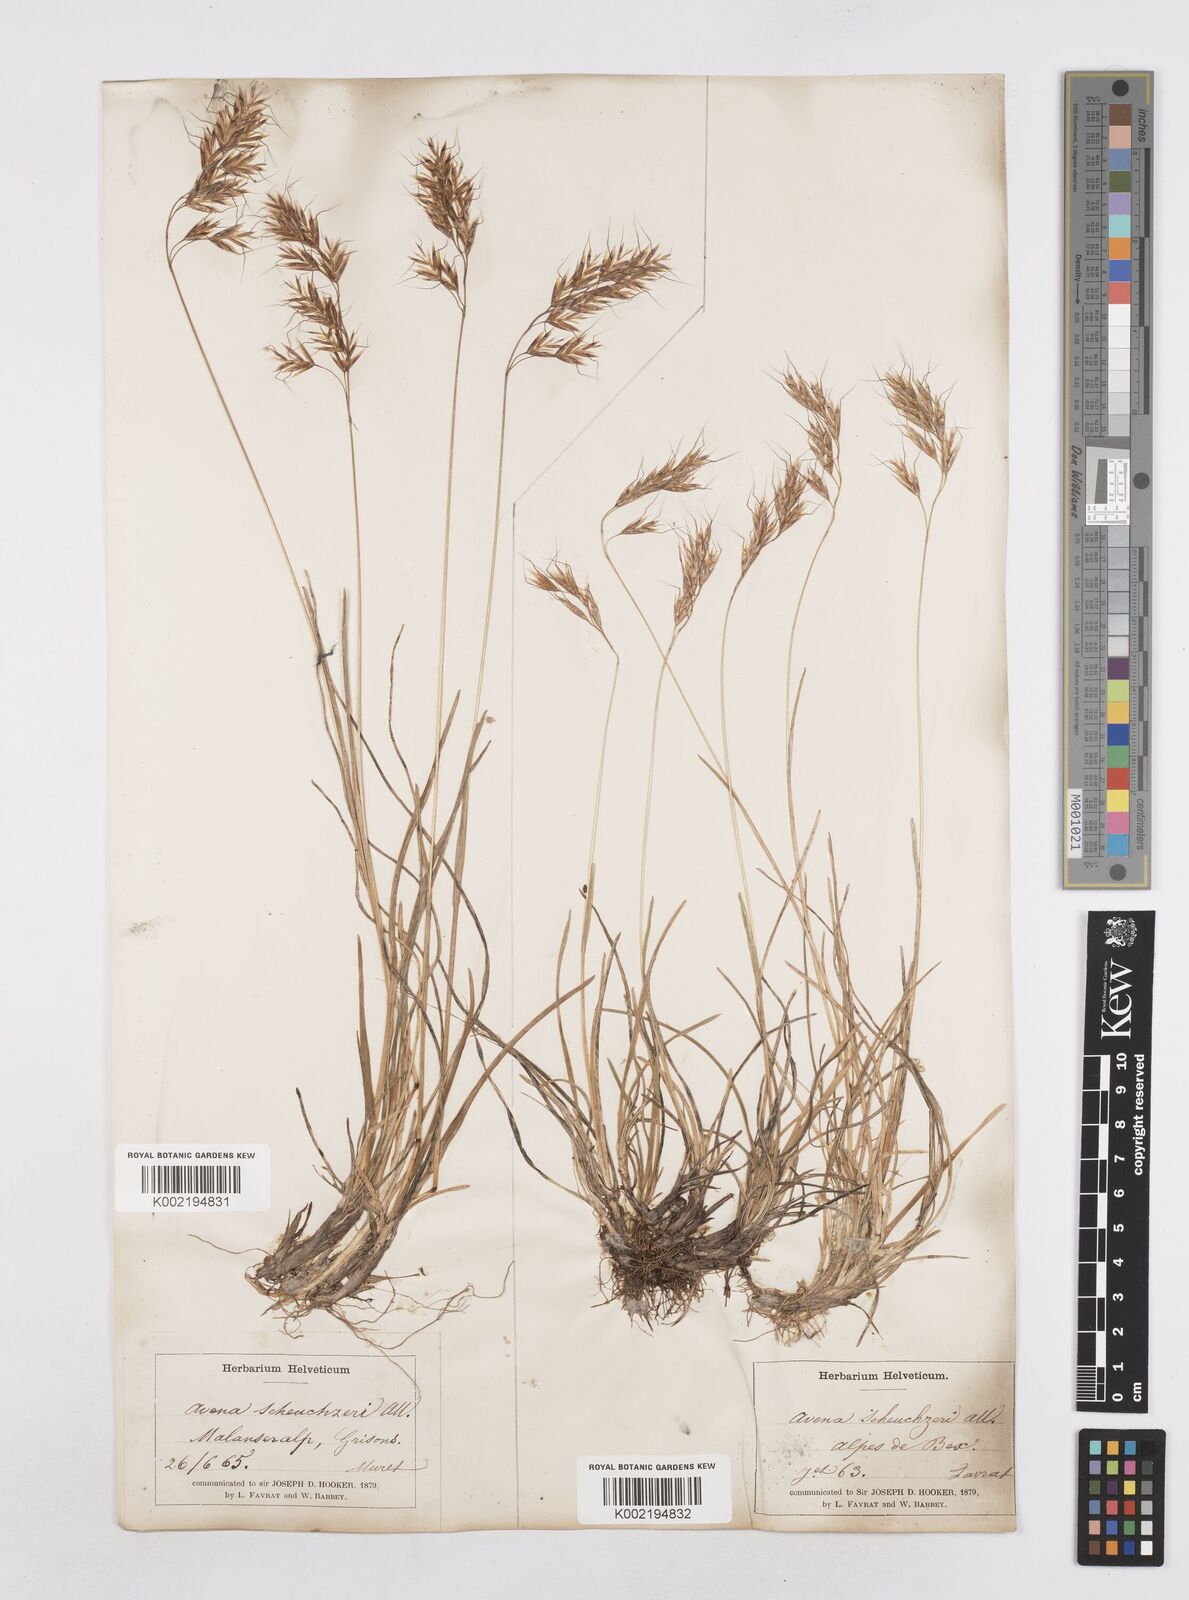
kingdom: Plantae
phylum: Tracheophyta
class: Liliopsida
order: Poales
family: Poaceae
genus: Helictotrichon
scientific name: Helictotrichon
